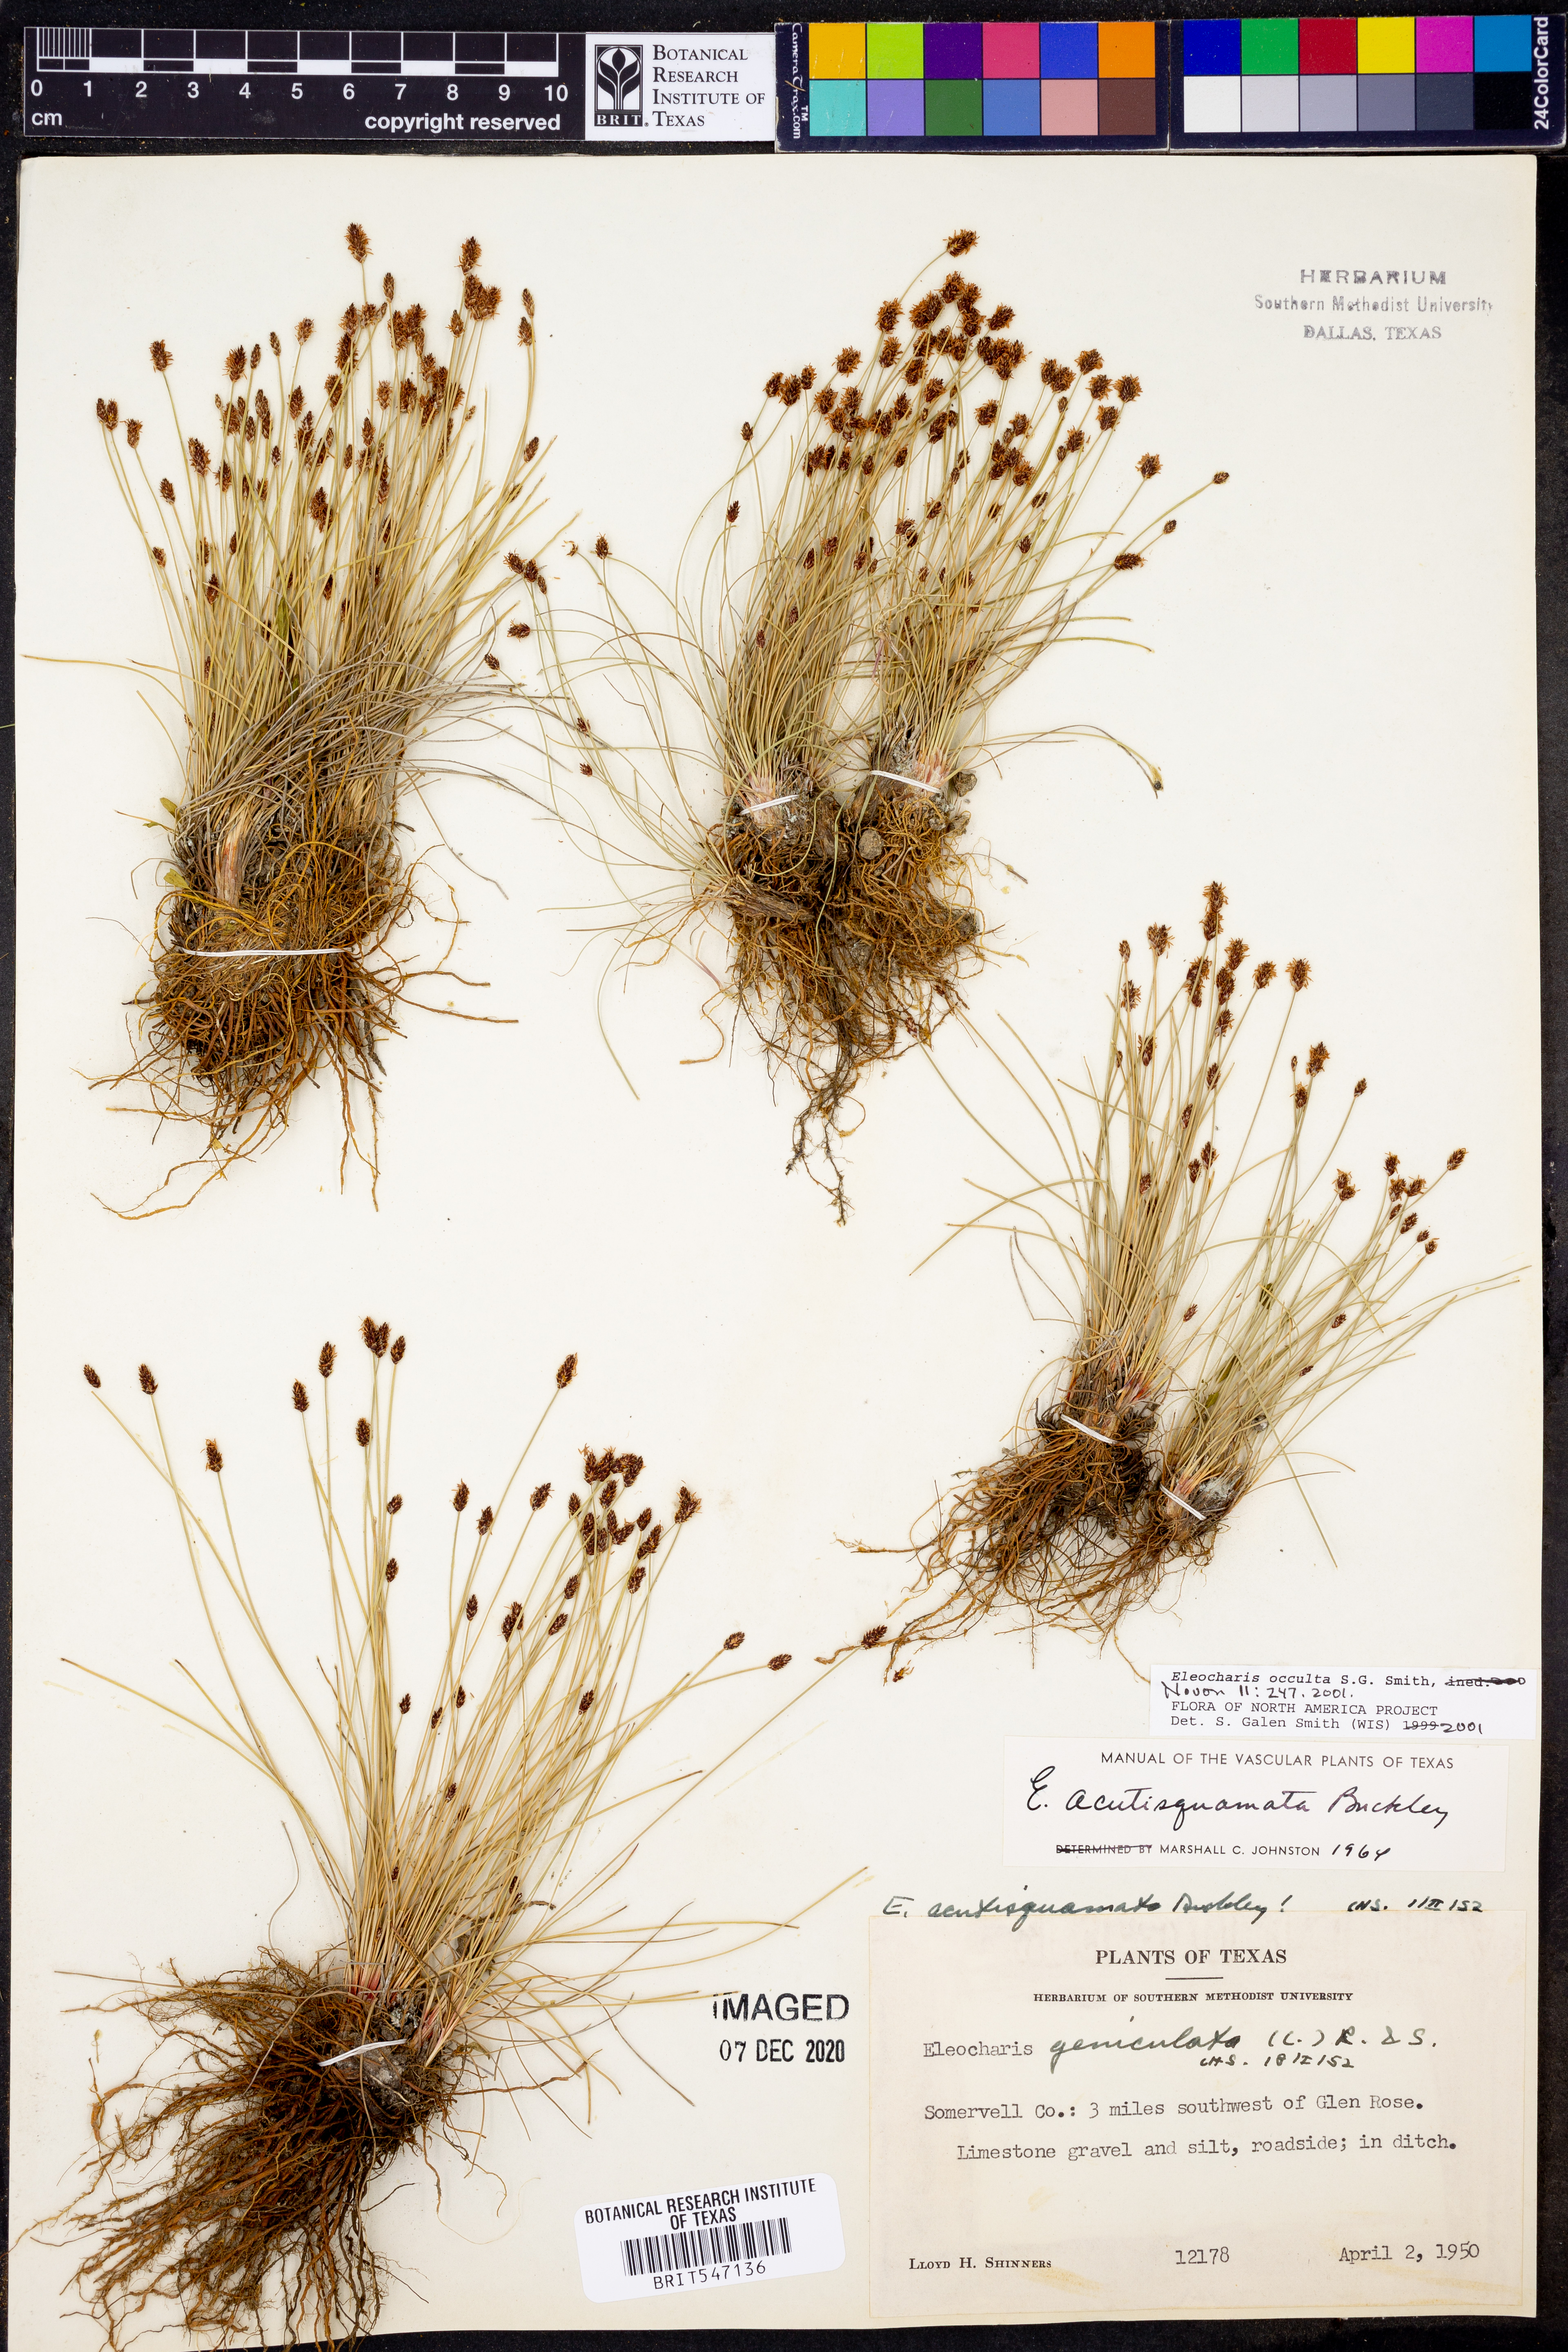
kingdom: Plantae
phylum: Tracheophyta
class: Liliopsida
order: Poales
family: Cyperaceae
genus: Eleocharis
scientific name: Eleocharis occulta
